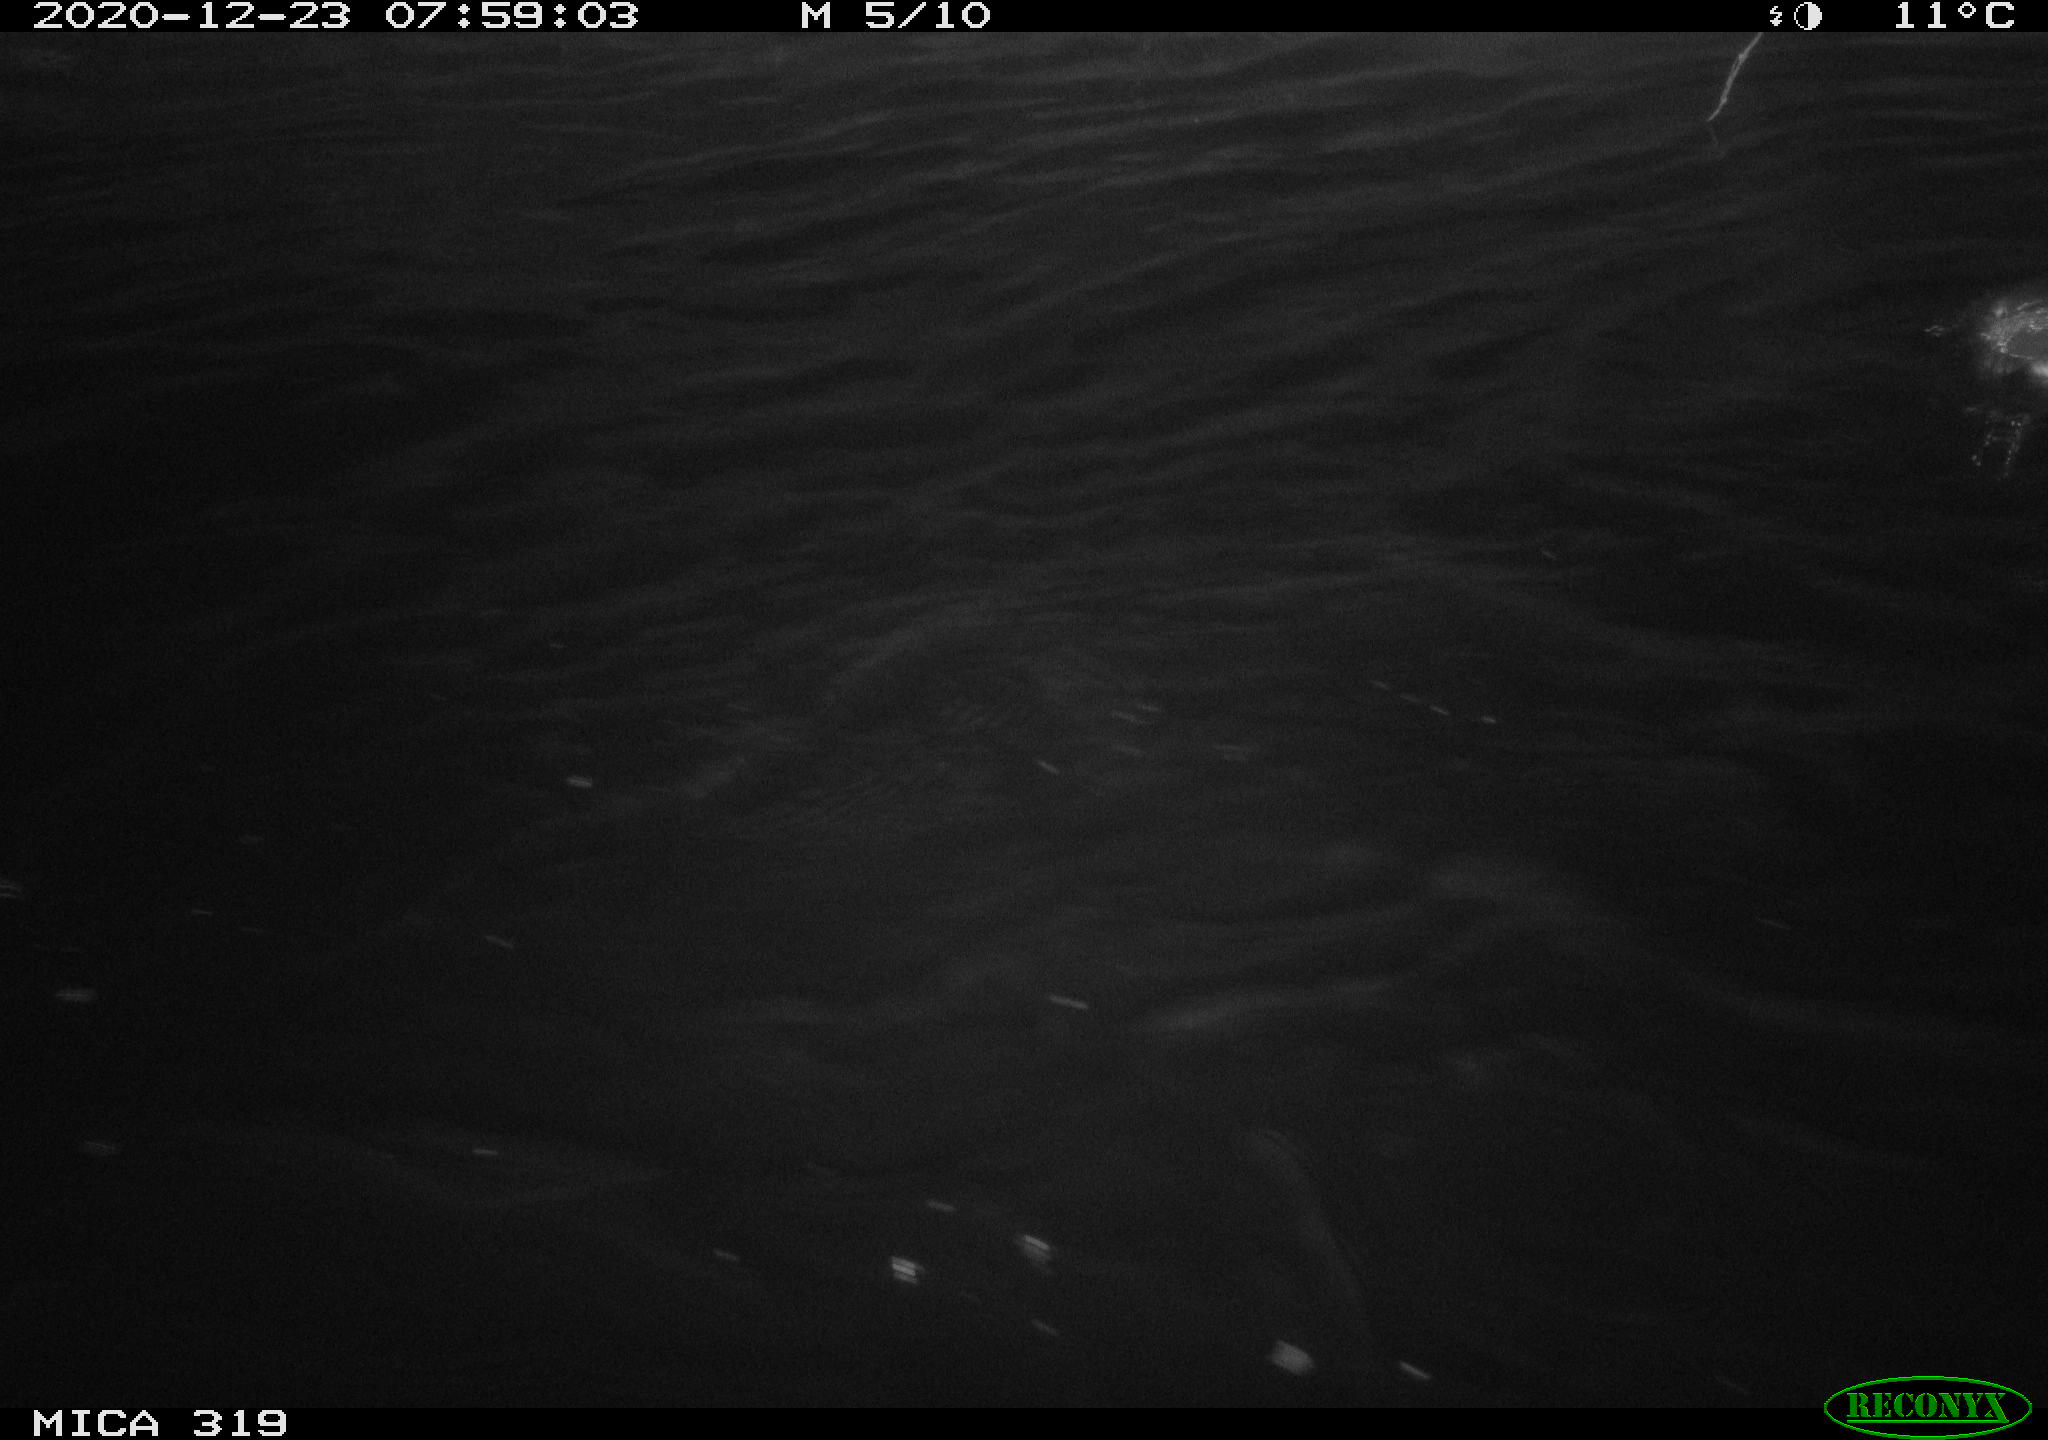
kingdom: Animalia
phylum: Chordata
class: Aves
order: Anseriformes
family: Anatidae
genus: Anas
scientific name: Anas platyrhynchos
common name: Mallard
